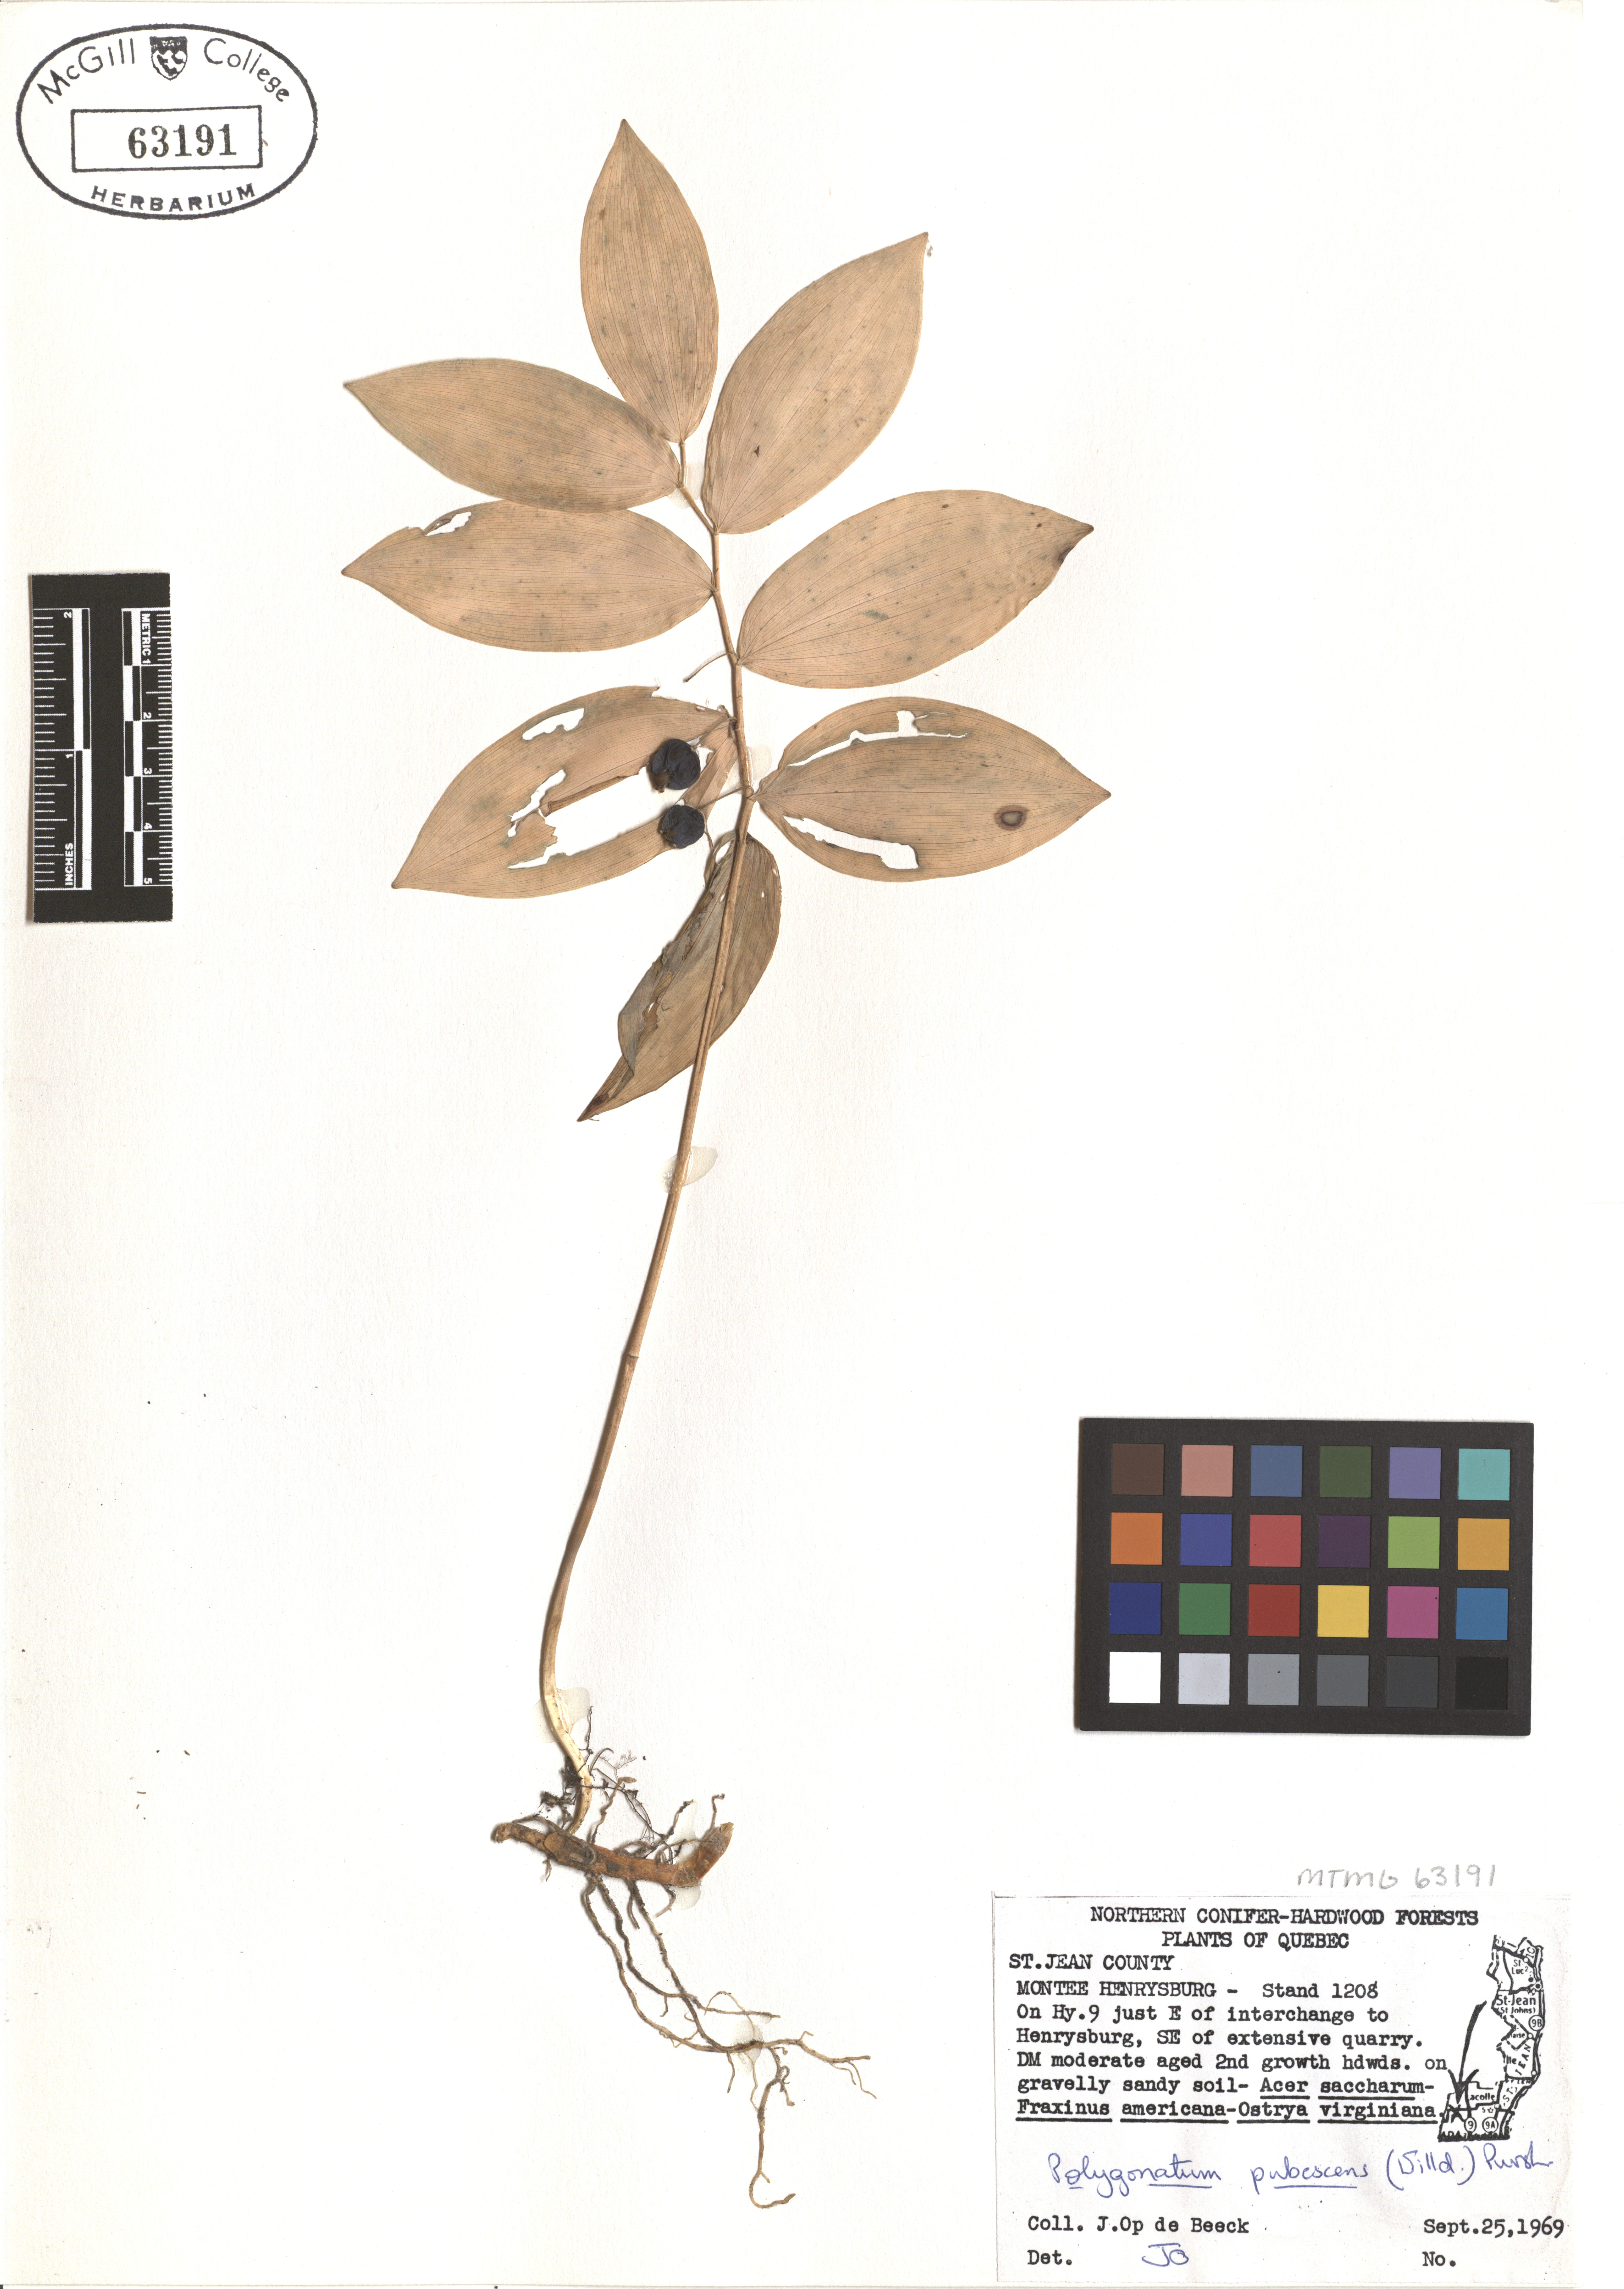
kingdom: Plantae
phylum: Tracheophyta
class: Liliopsida
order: Asparagales
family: Asparagaceae
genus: Polygonatum
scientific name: Polygonatum pubescens
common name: Downy solomon's seal
